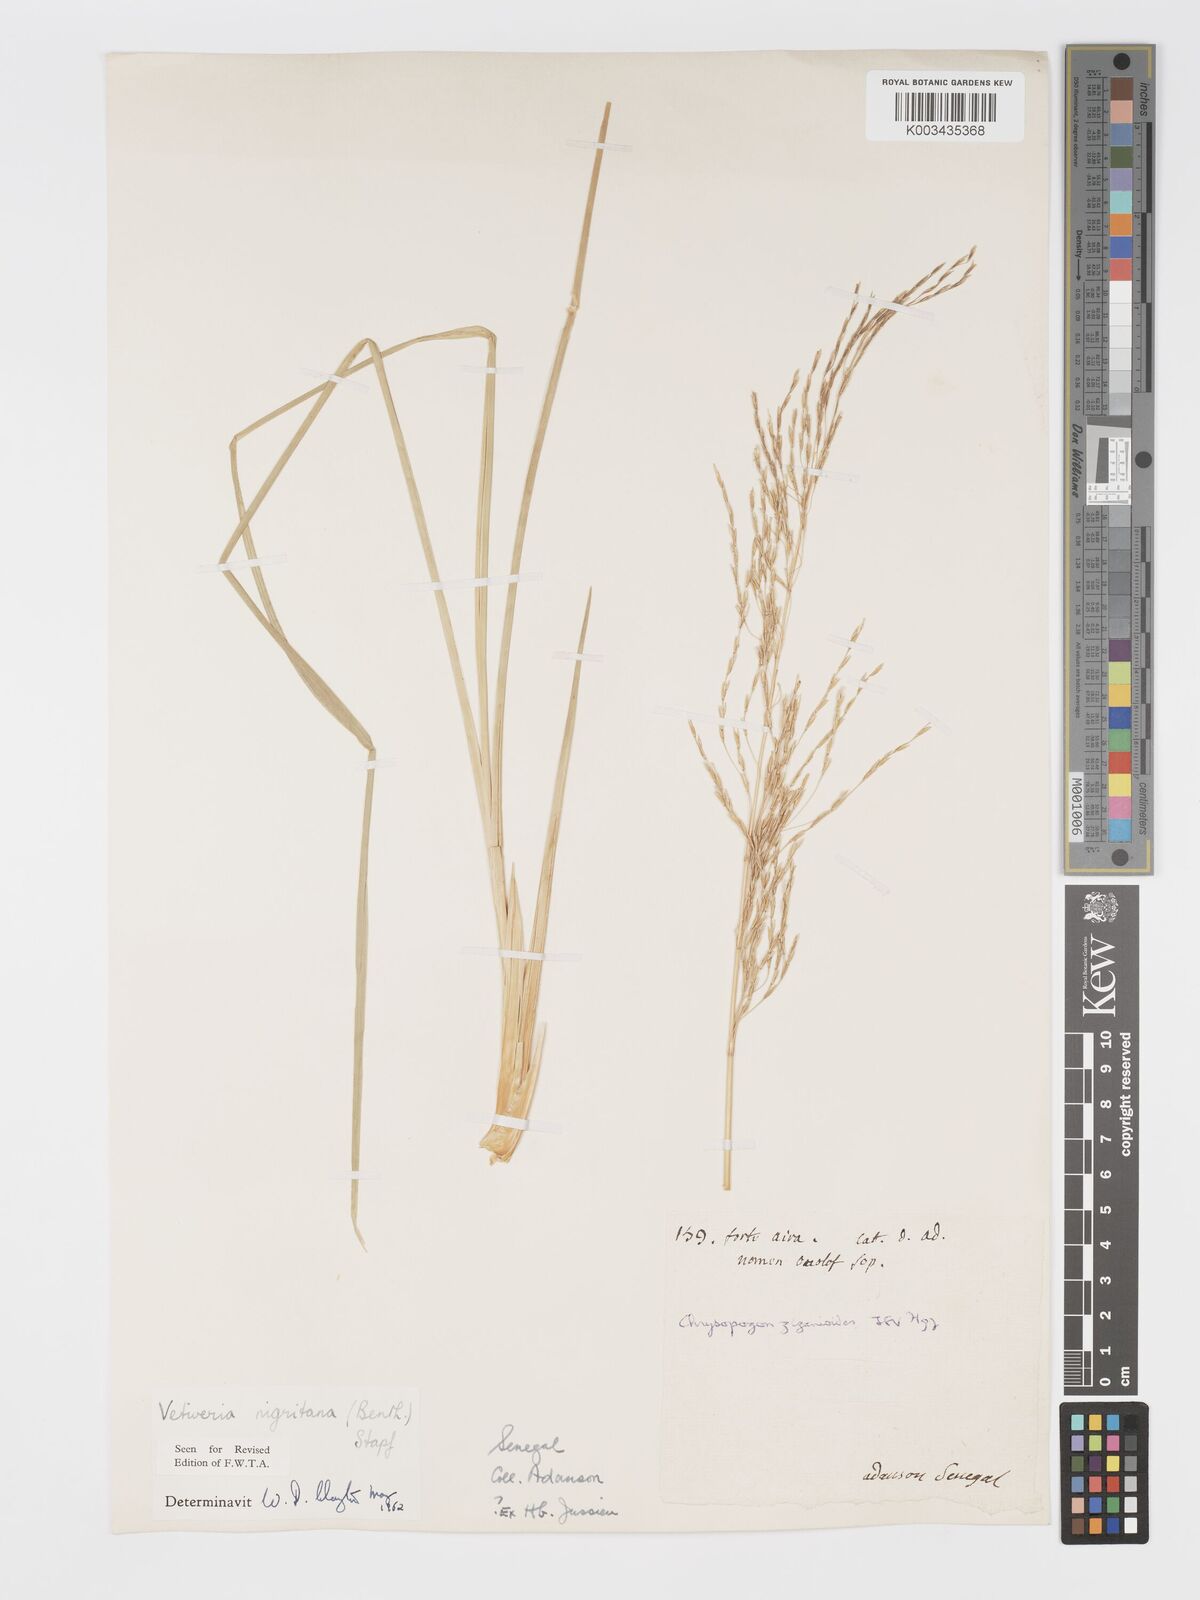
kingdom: Plantae
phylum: Tracheophyta
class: Liliopsida
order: Poales
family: Poaceae
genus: Chrysopogon
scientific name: Chrysopogon nigritanus
